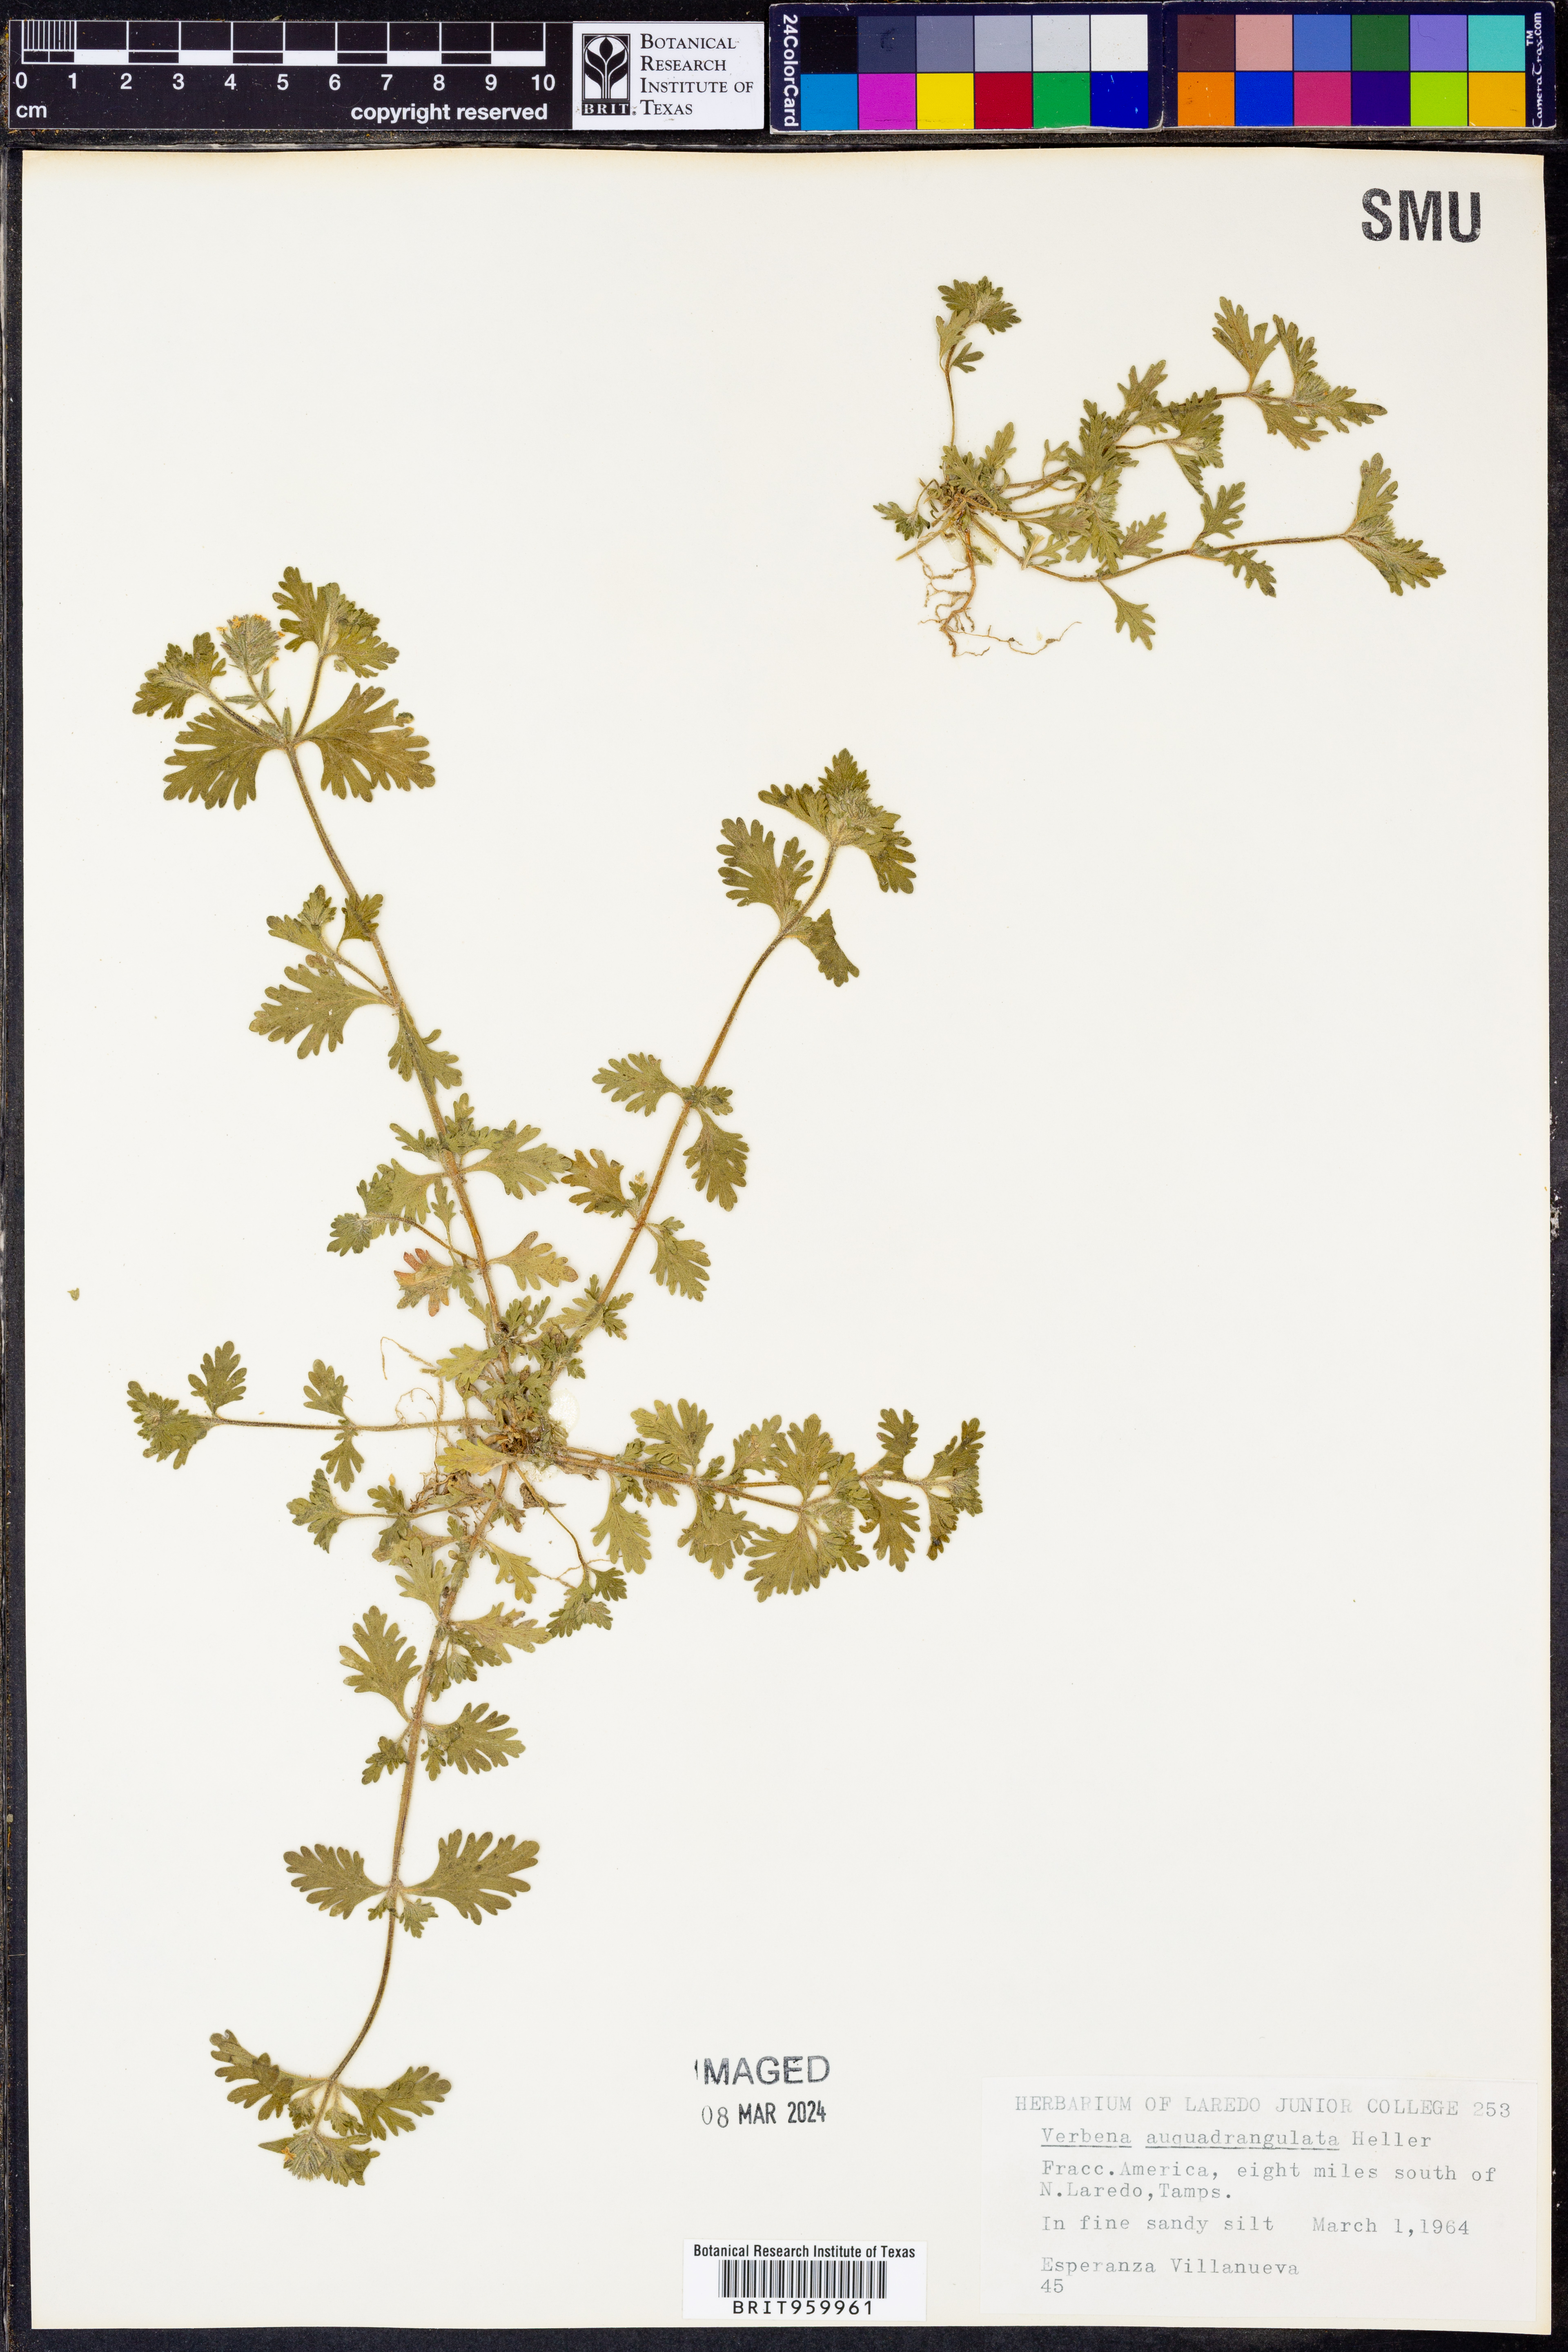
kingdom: Plantae
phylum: Tracheophyta
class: Magnoliopsida
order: Lamiales
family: Verbenaceae
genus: Verbena
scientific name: Verbena quadrangulata
